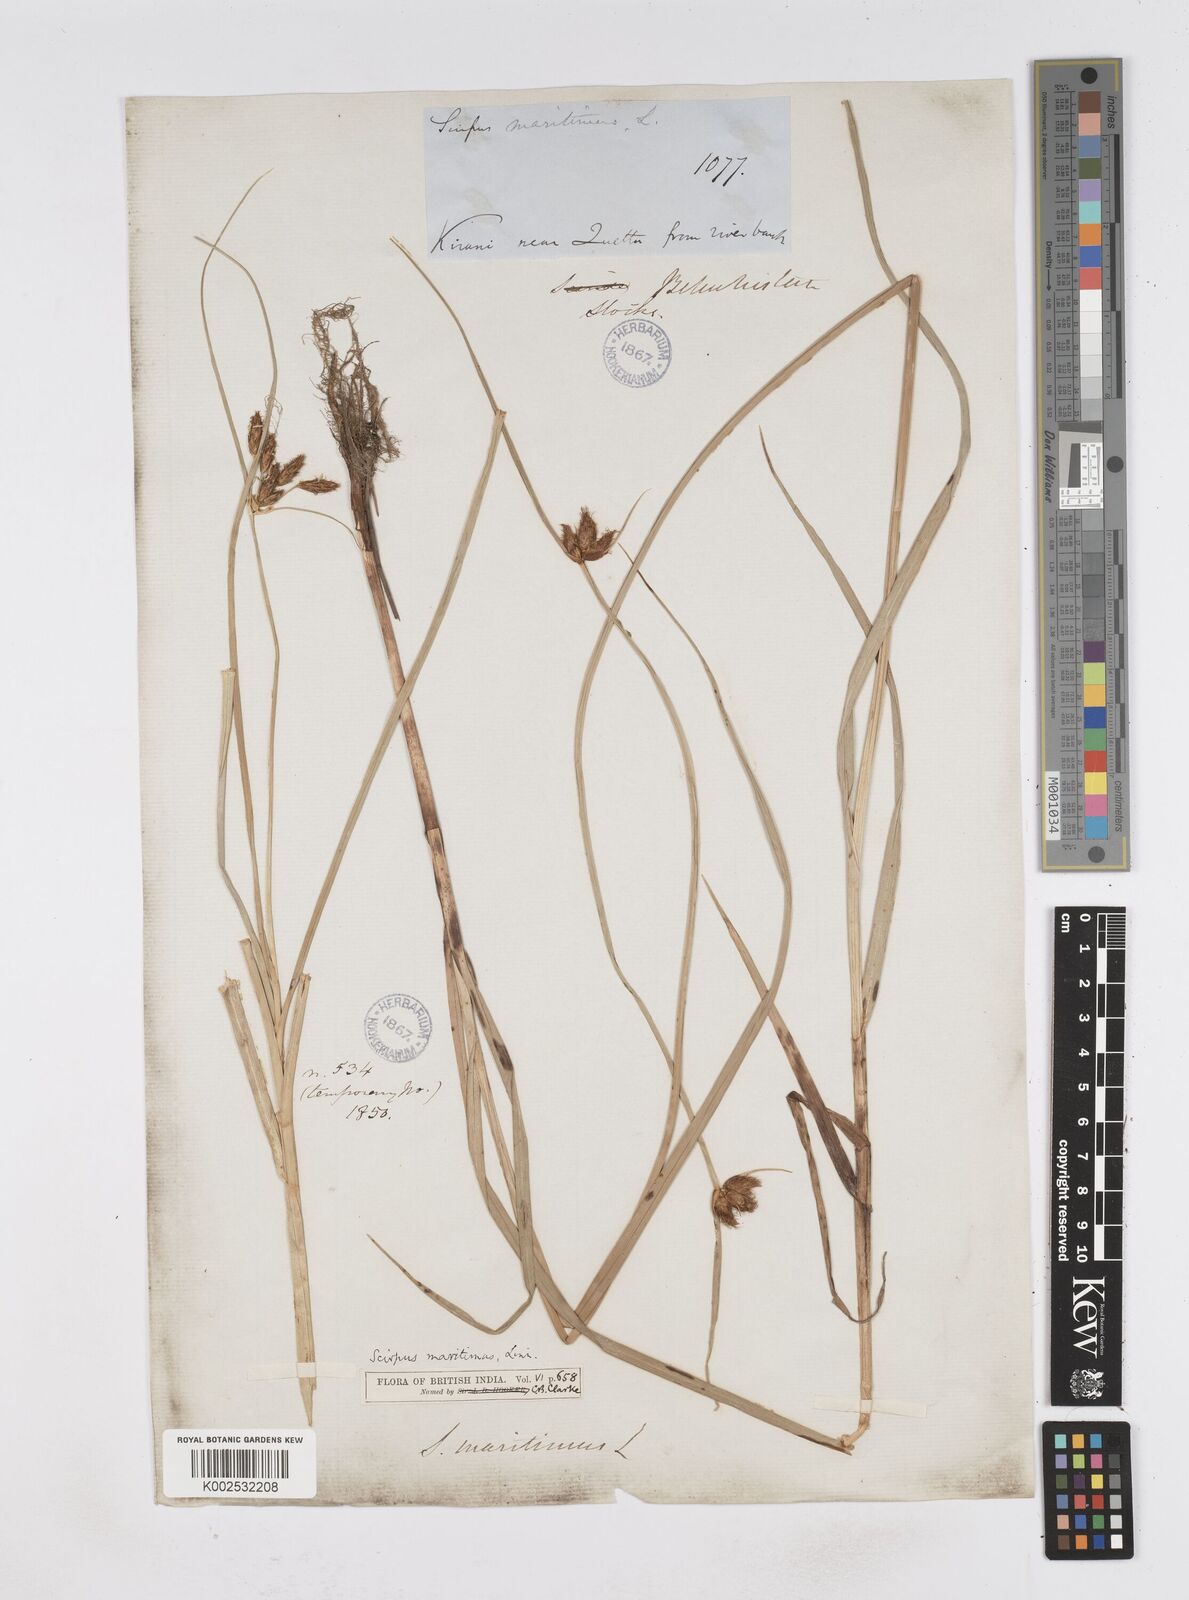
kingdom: Plantae
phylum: Tracheophyta
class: Liliopsida
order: Poales
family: Cyperaceae
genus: Bolboschoenus
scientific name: Bolboschoenus maritimus
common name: Sea club-rush
